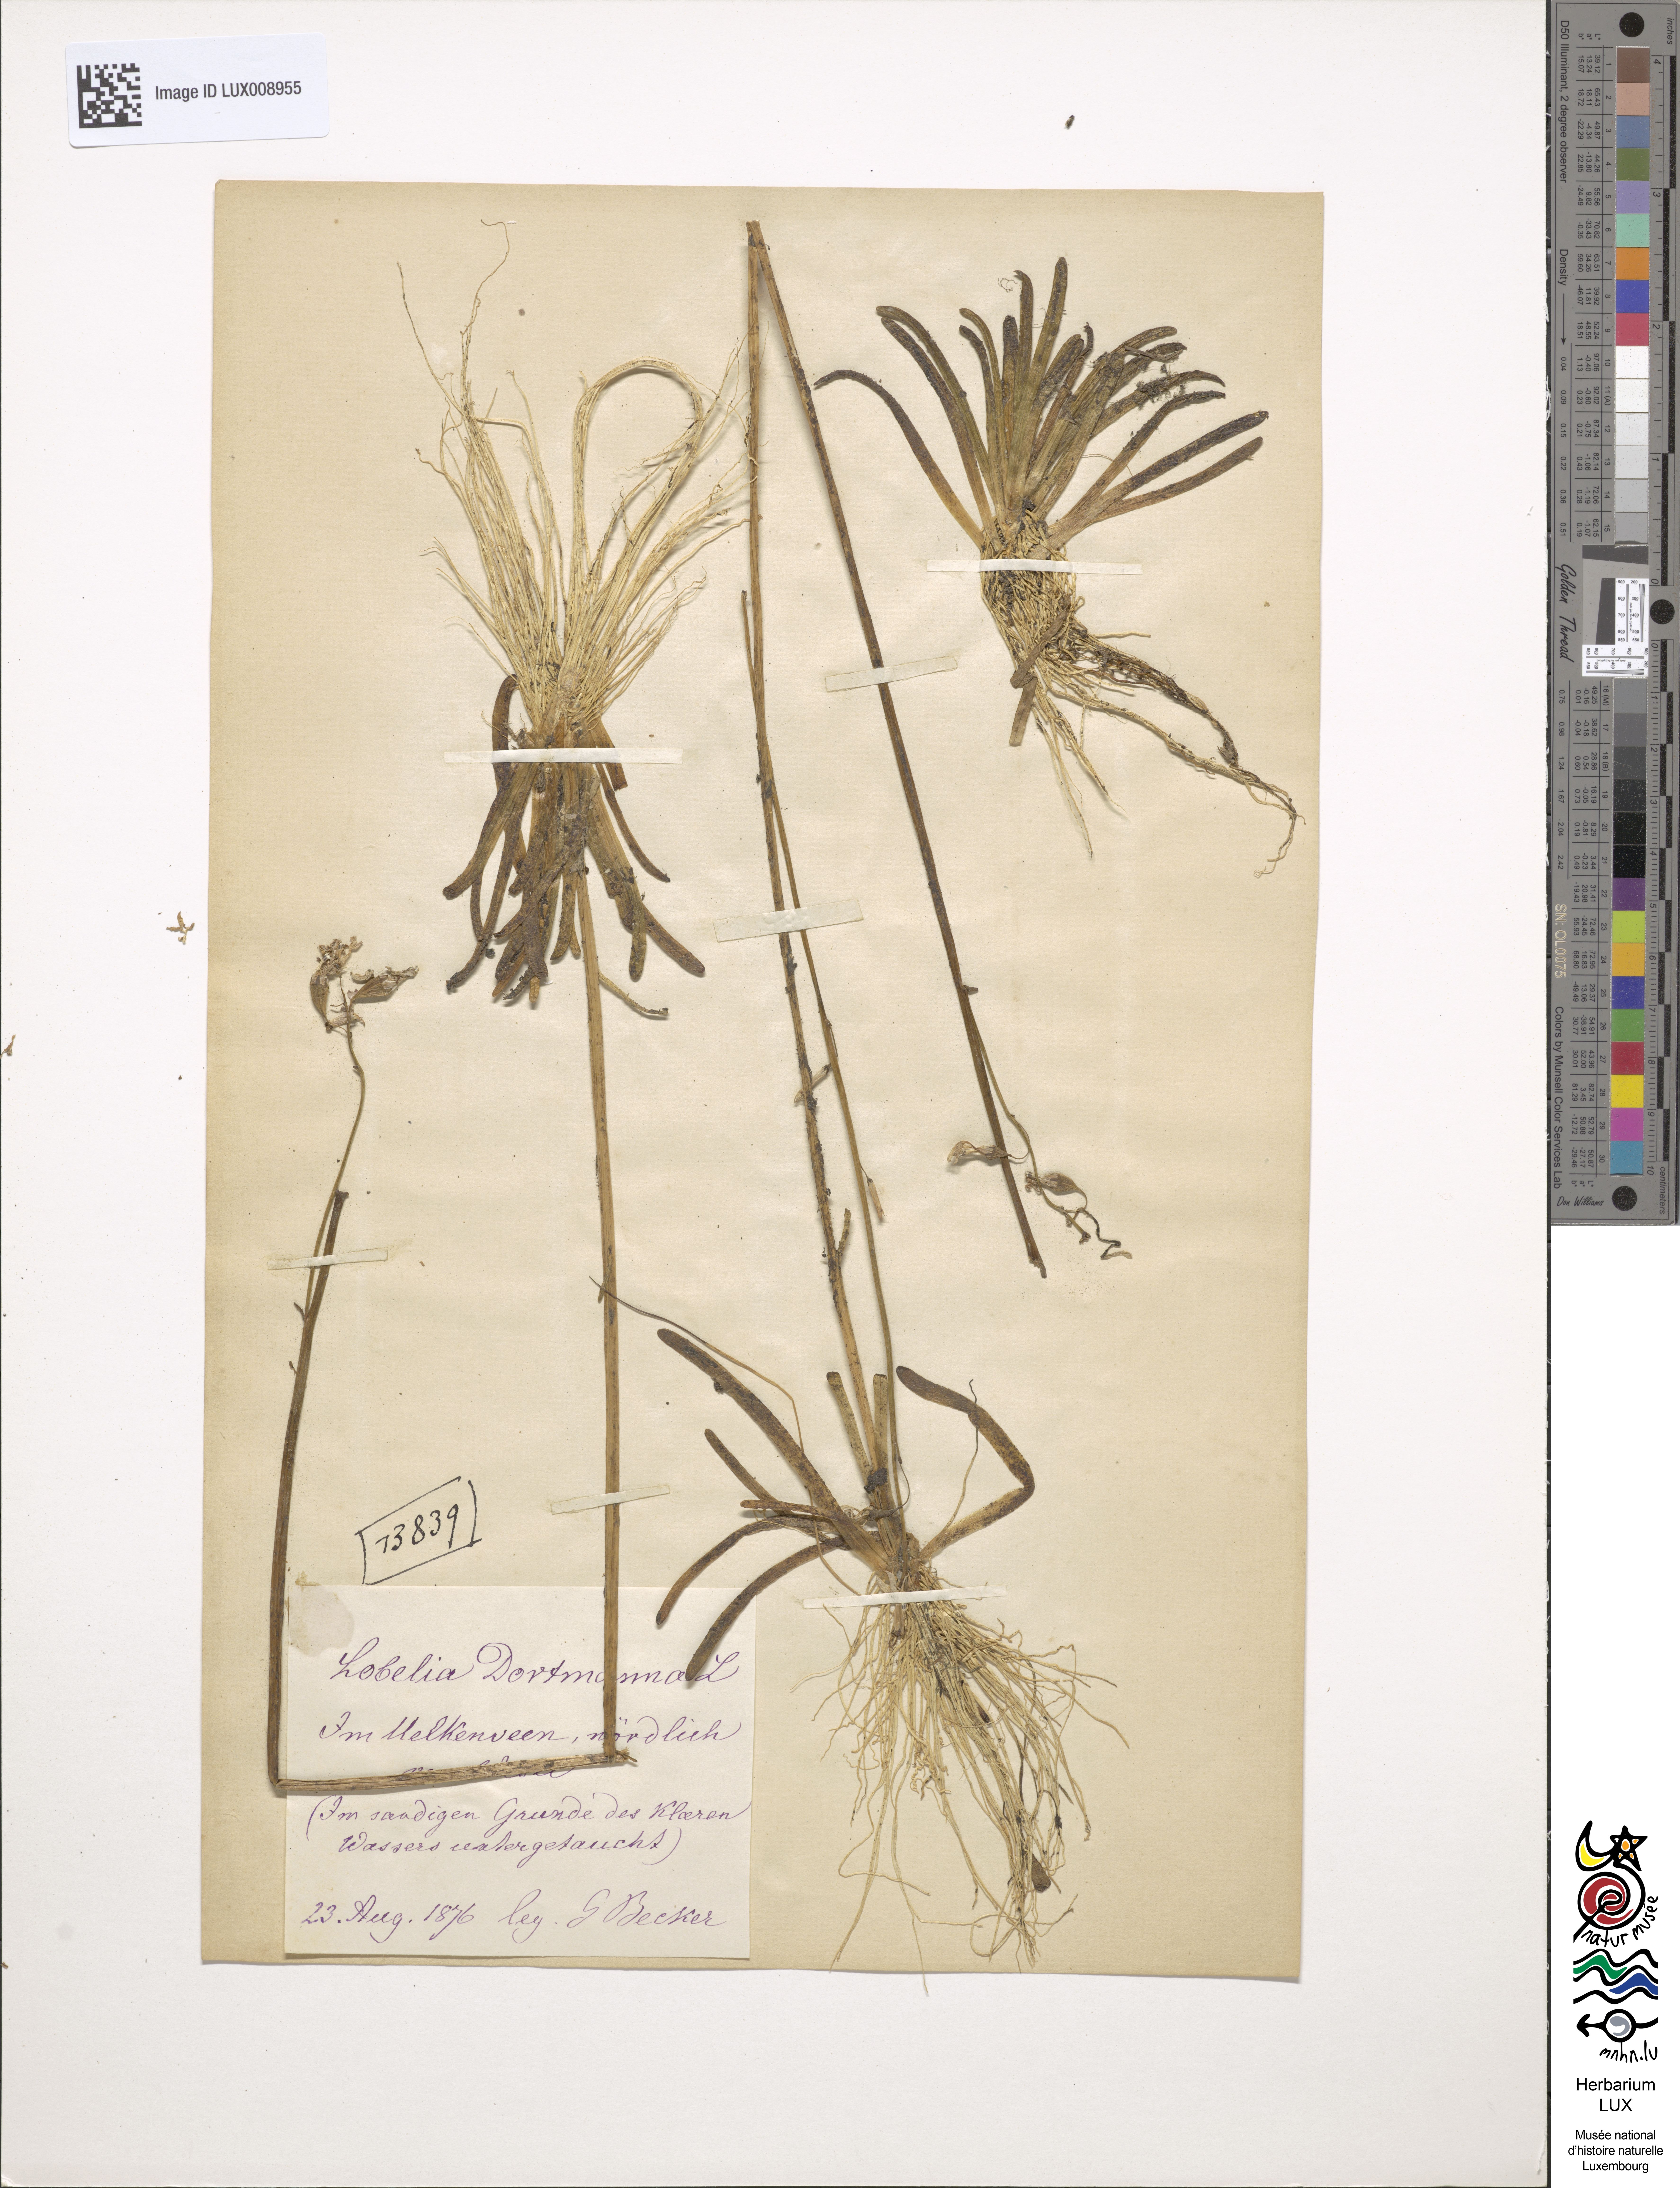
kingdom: Plantae
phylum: Tracheophyta
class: Magnoliopsida
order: Asterales
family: Campanulaceae
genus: Lobelia
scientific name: Lobelia dortmanna
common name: Water lobelia
